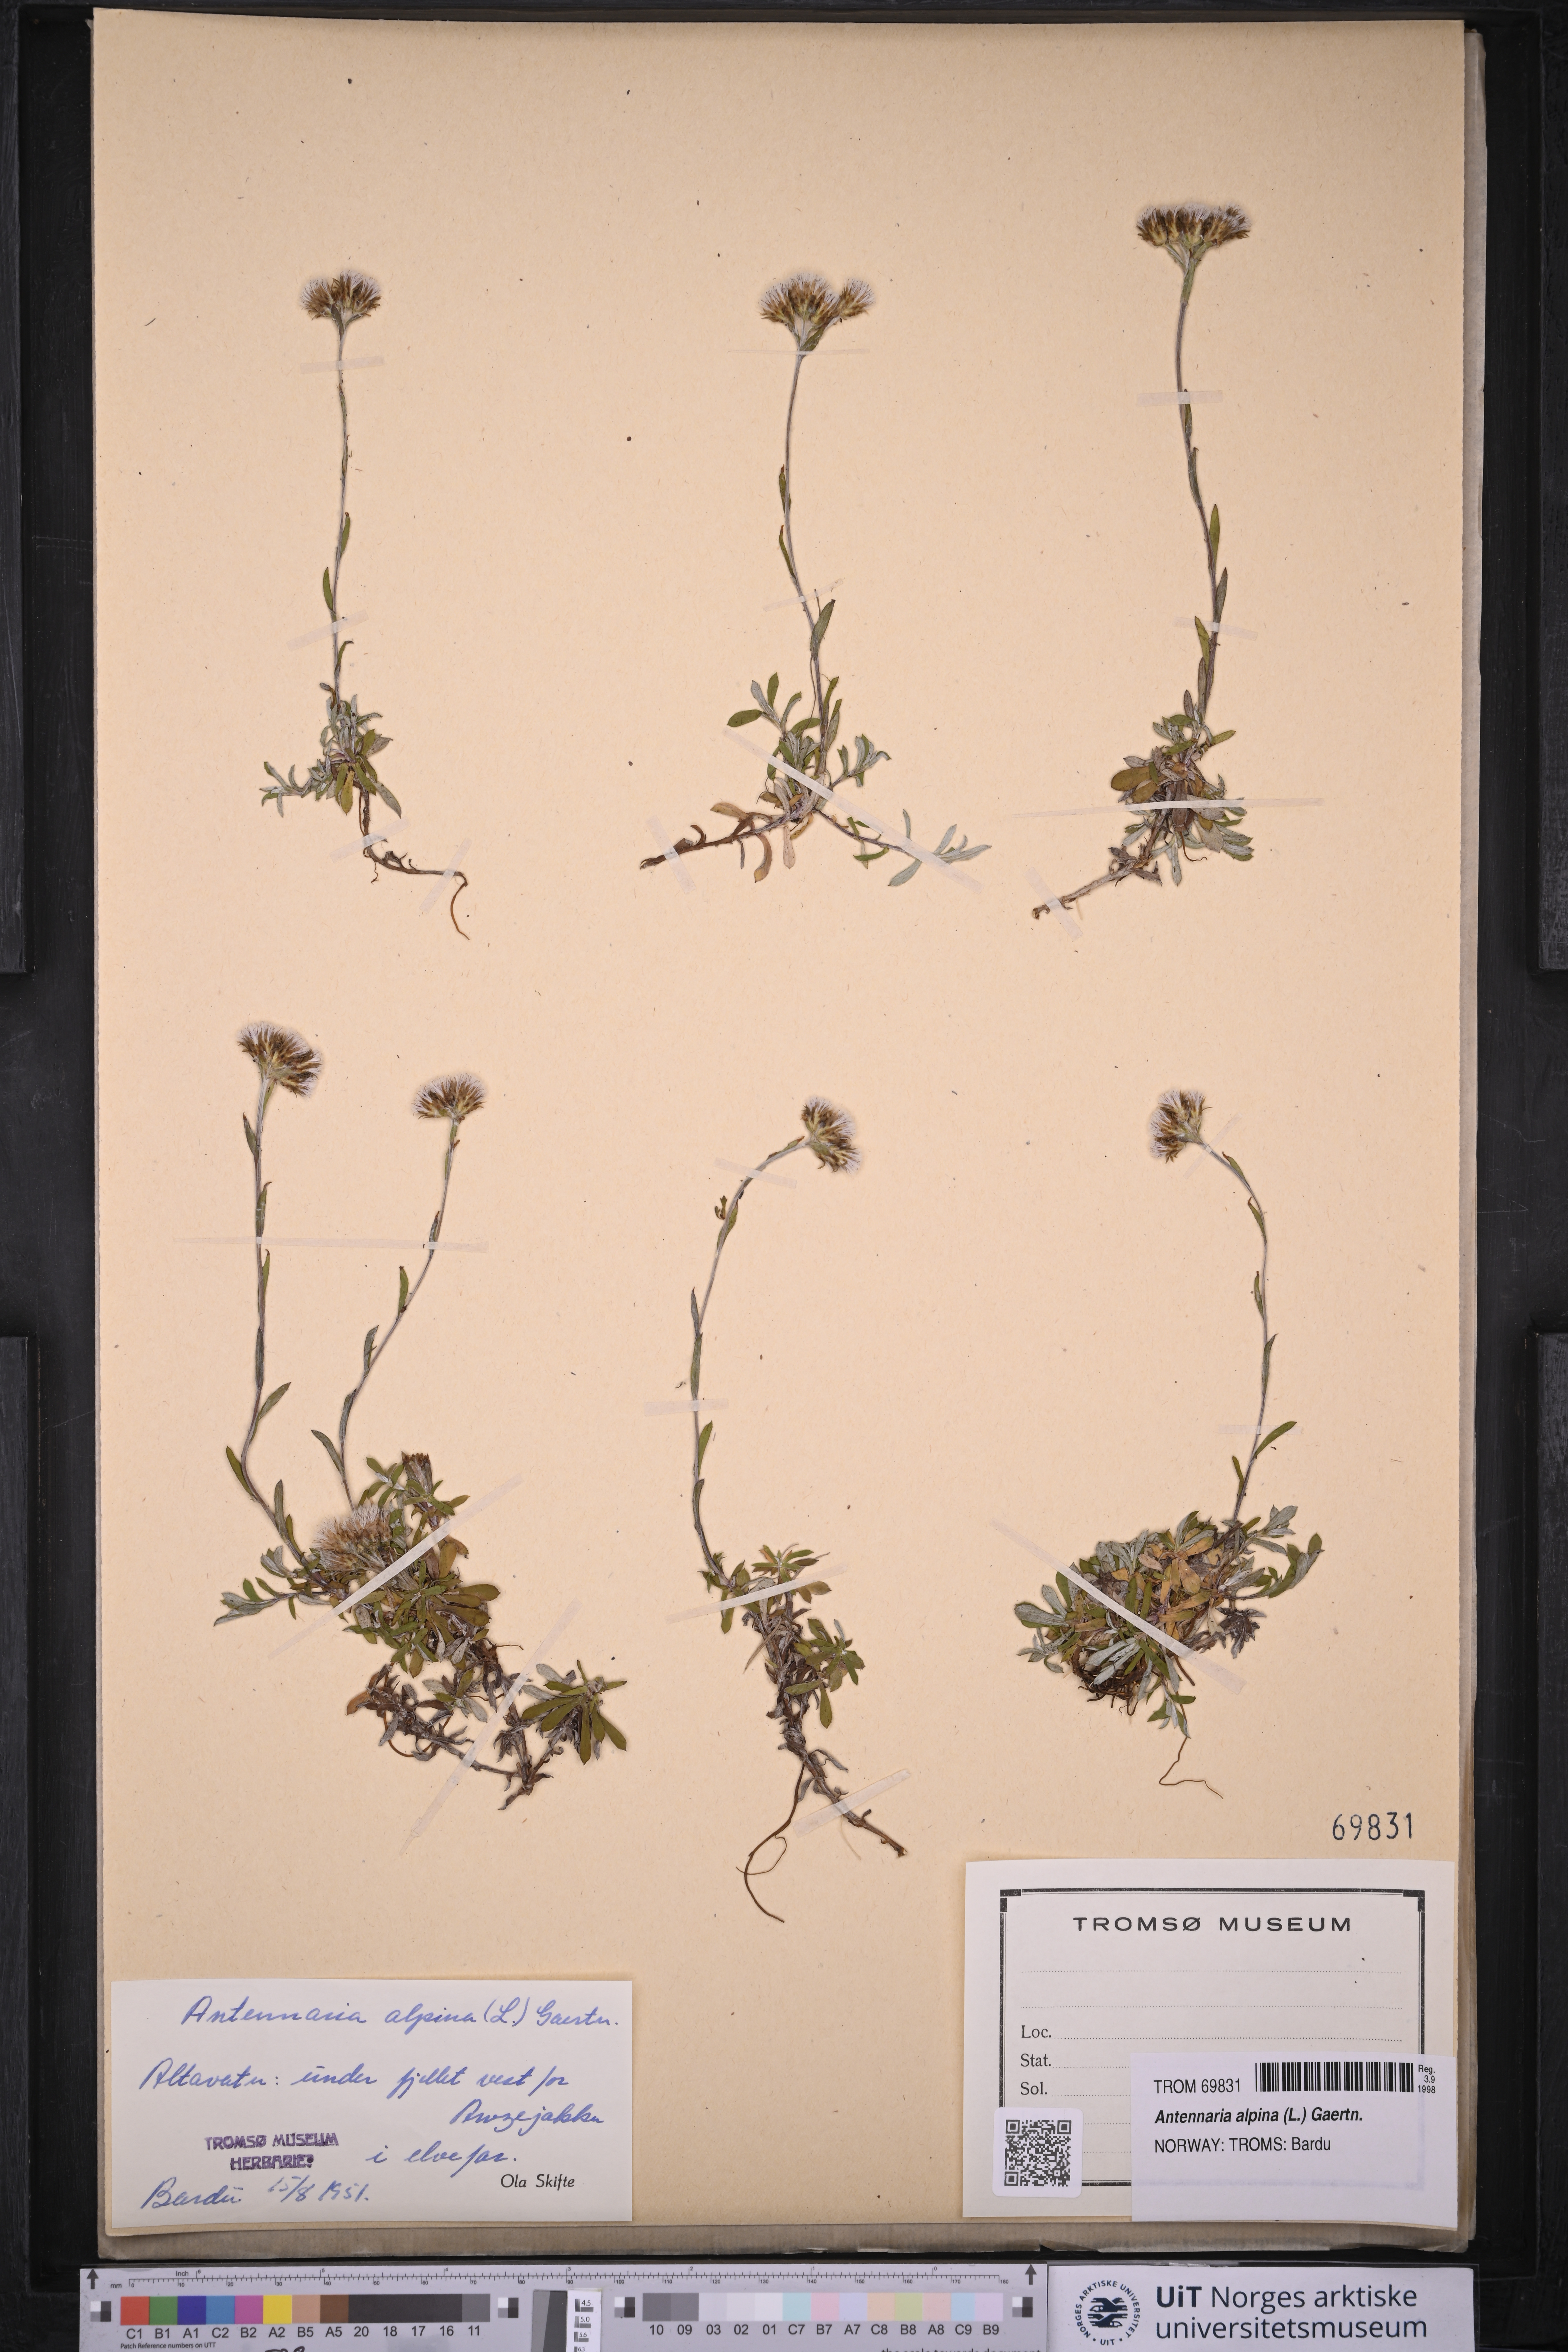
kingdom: Plantae
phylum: Tracheophyta
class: Magnoliopsida
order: Asterales
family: Asteraceae
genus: Antennaria
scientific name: Antennaria alpina
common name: Alpine pussytoes
